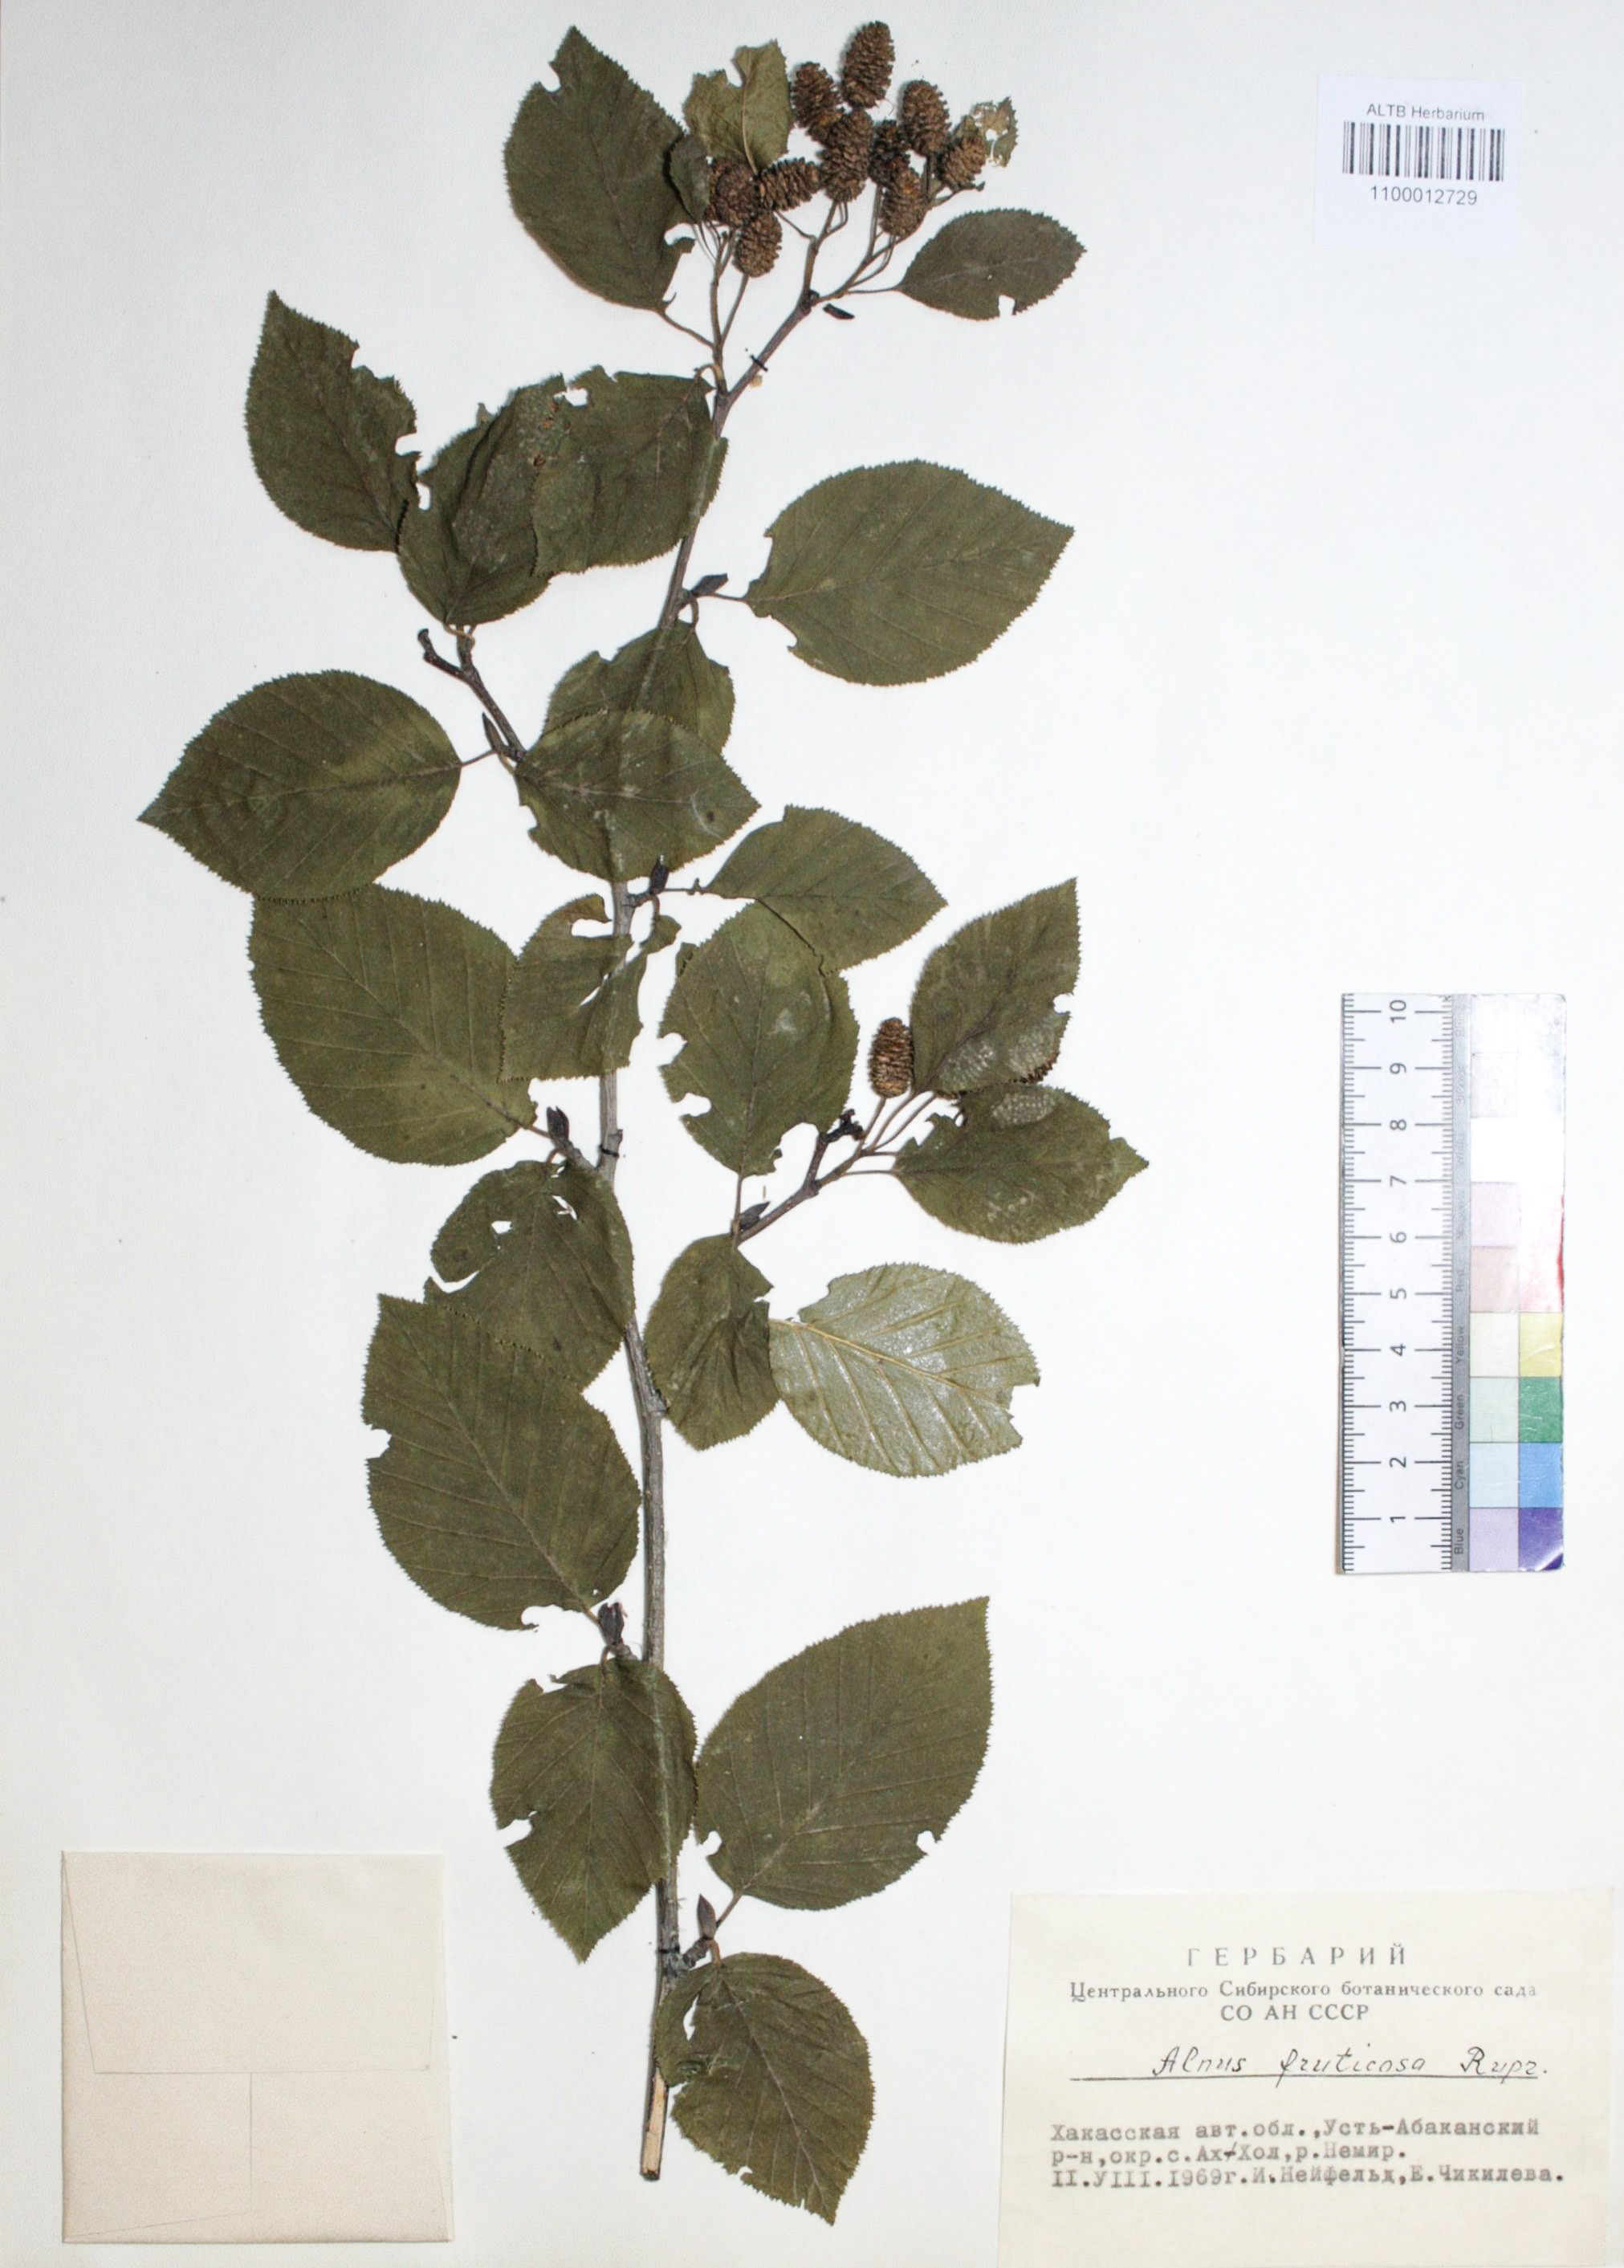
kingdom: Plantae
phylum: Tracheophyta
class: Magnoliopsida
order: Fagales
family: Betulaceae
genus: Alnus
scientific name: Alnus alnobetula
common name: Green alder
